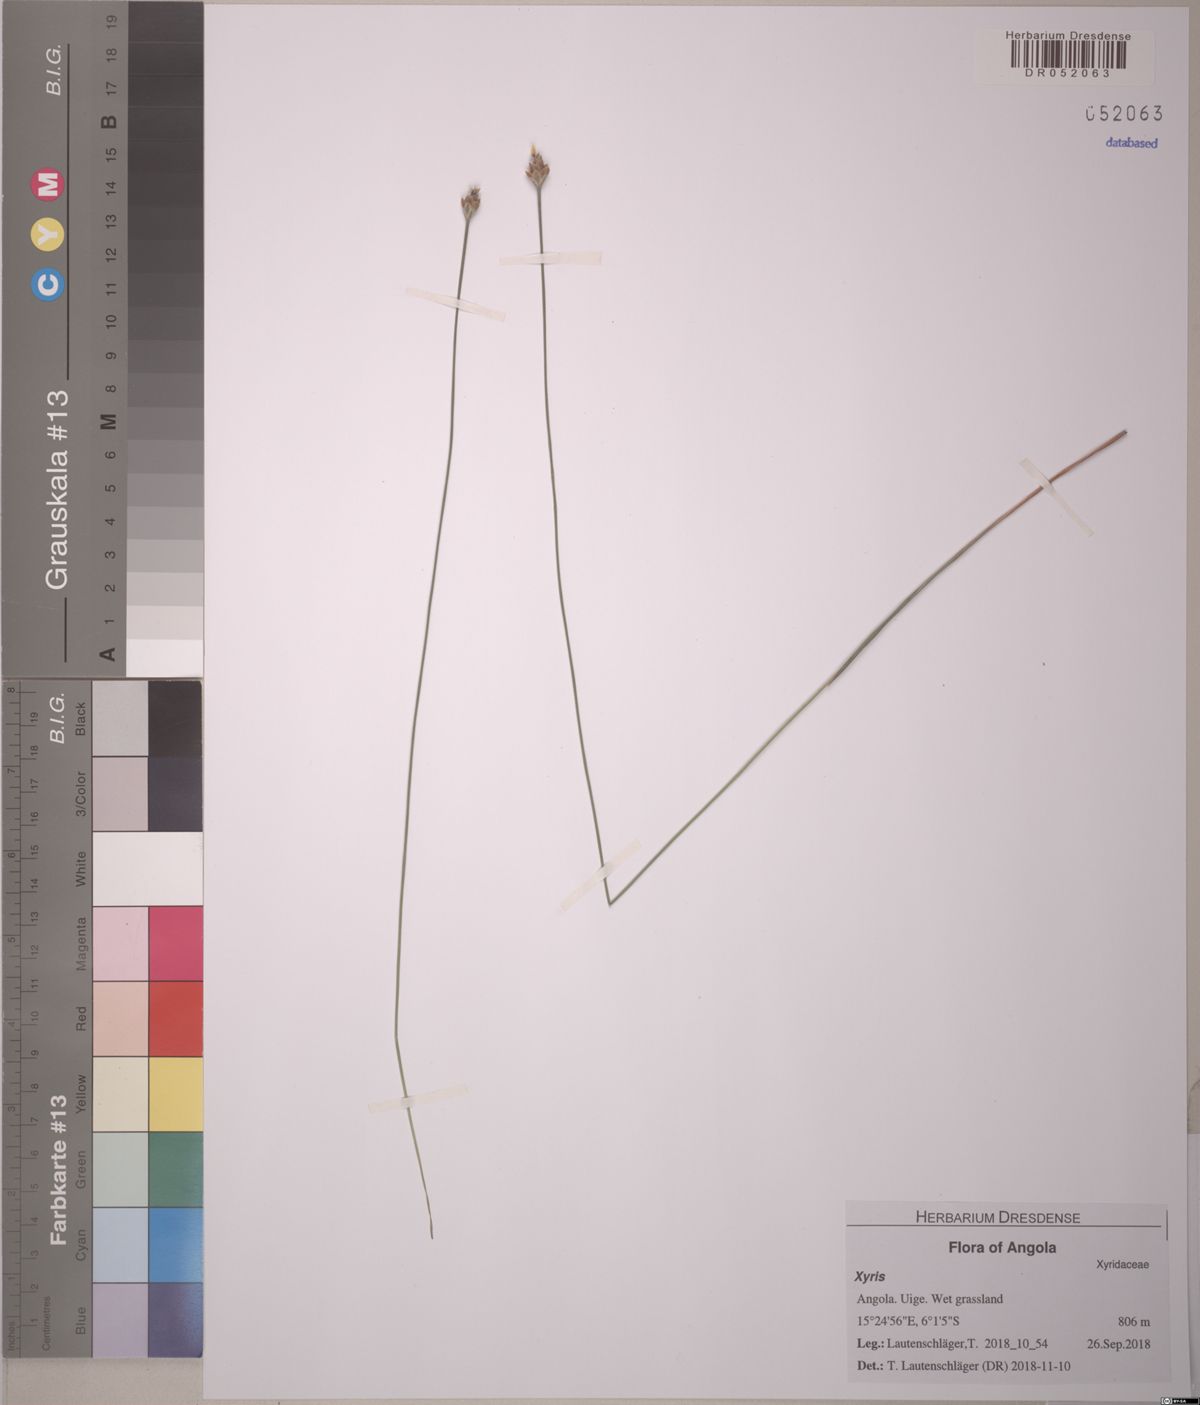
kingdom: Plantae
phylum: Tracheophyta
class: Liliopsida
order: Poales
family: Xyridaceae
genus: Xyris
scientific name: Xyris
